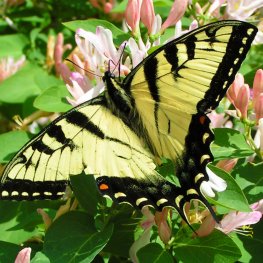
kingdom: Animalia
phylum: Arthropoda
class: Insecta
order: Lepidoptera
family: Papilionidae
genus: Pterourus
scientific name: Pterourus glaucus
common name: Eastern Tiger Swallowtail
